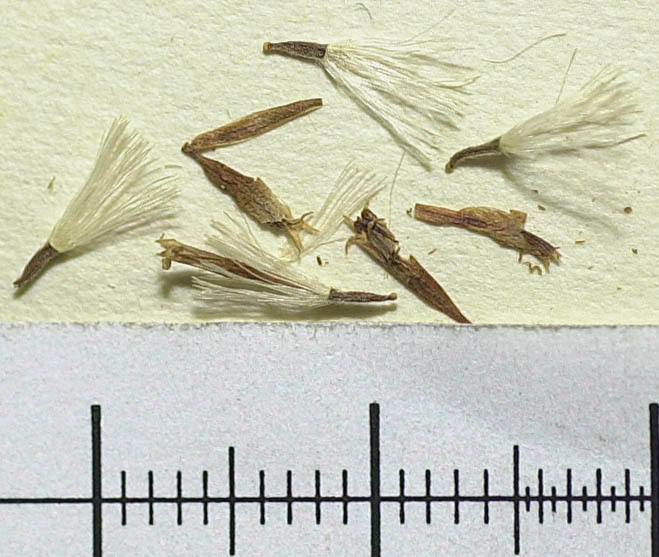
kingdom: Plantae
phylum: Tracheophyta
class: Magnoliopsida
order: Asterales
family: Asteraceae
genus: Vernonanthura
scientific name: Vernonanthura puberula
